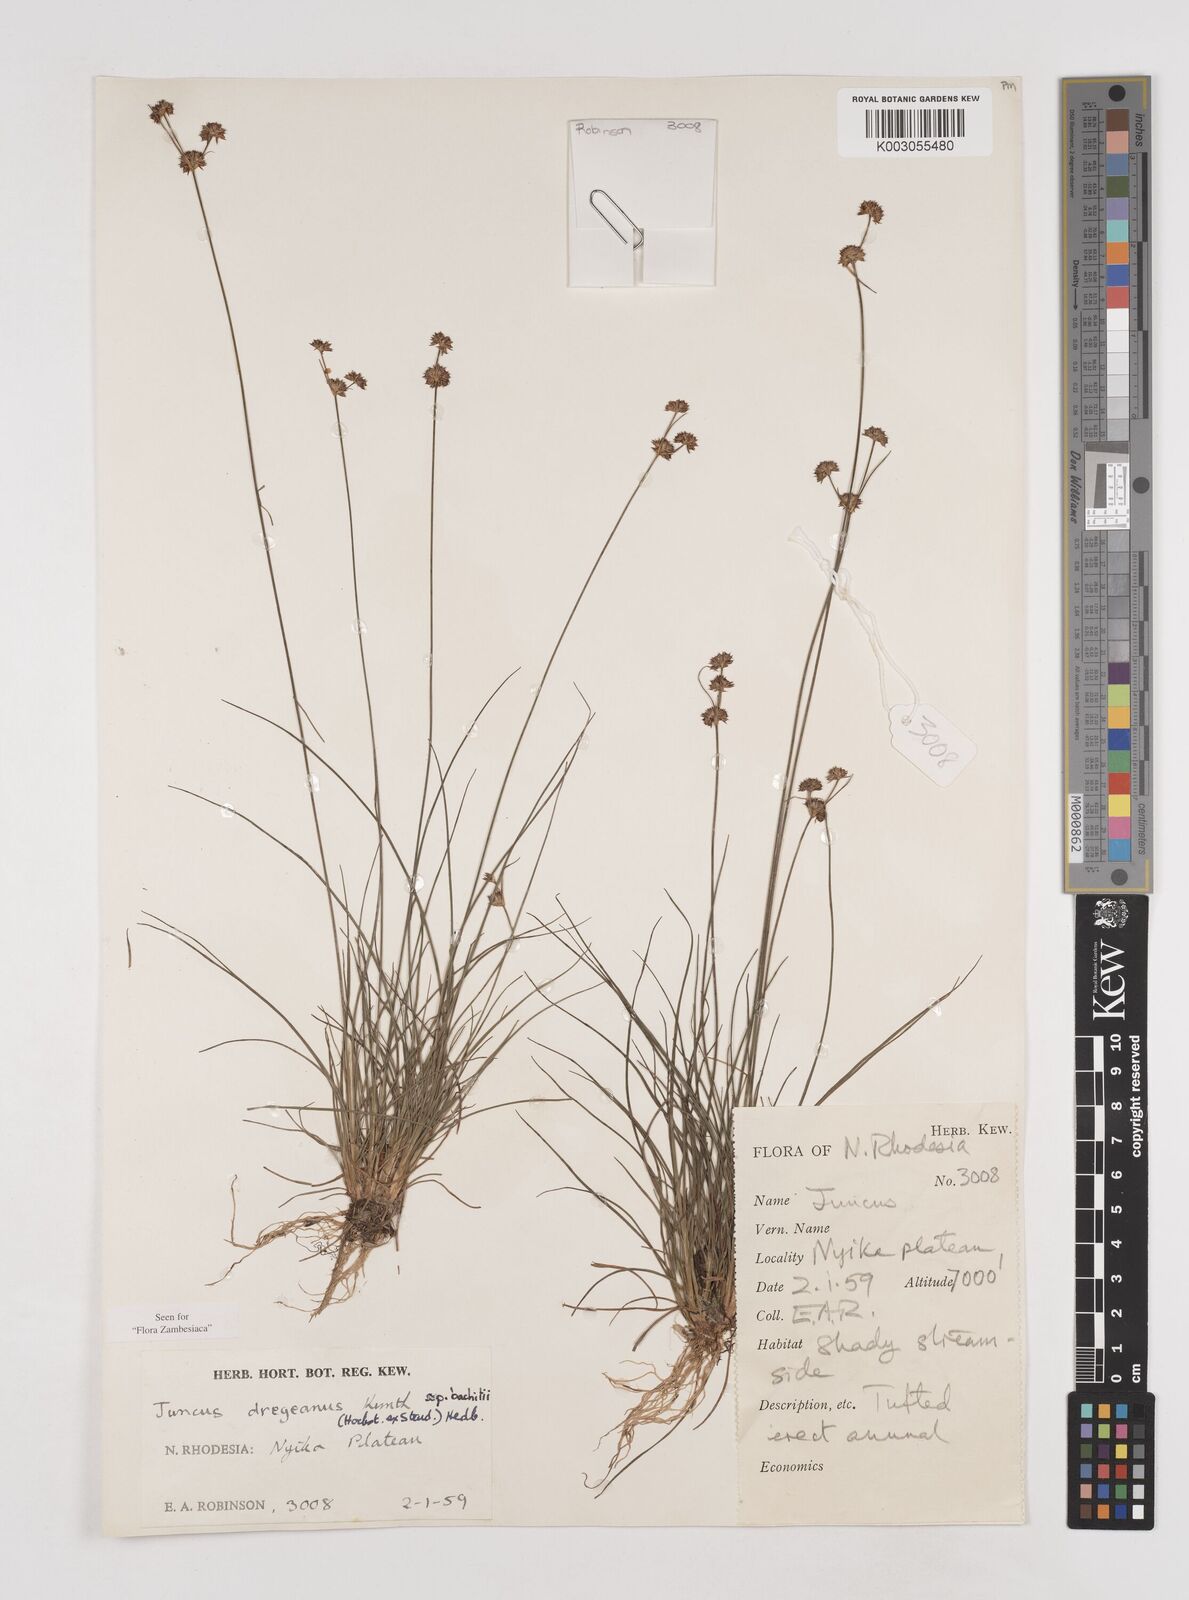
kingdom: Plantae
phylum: Tracheophyta
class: Liliopsida
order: Poales
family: Juncaceae
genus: Juncus
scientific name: Juncus dregeanus
